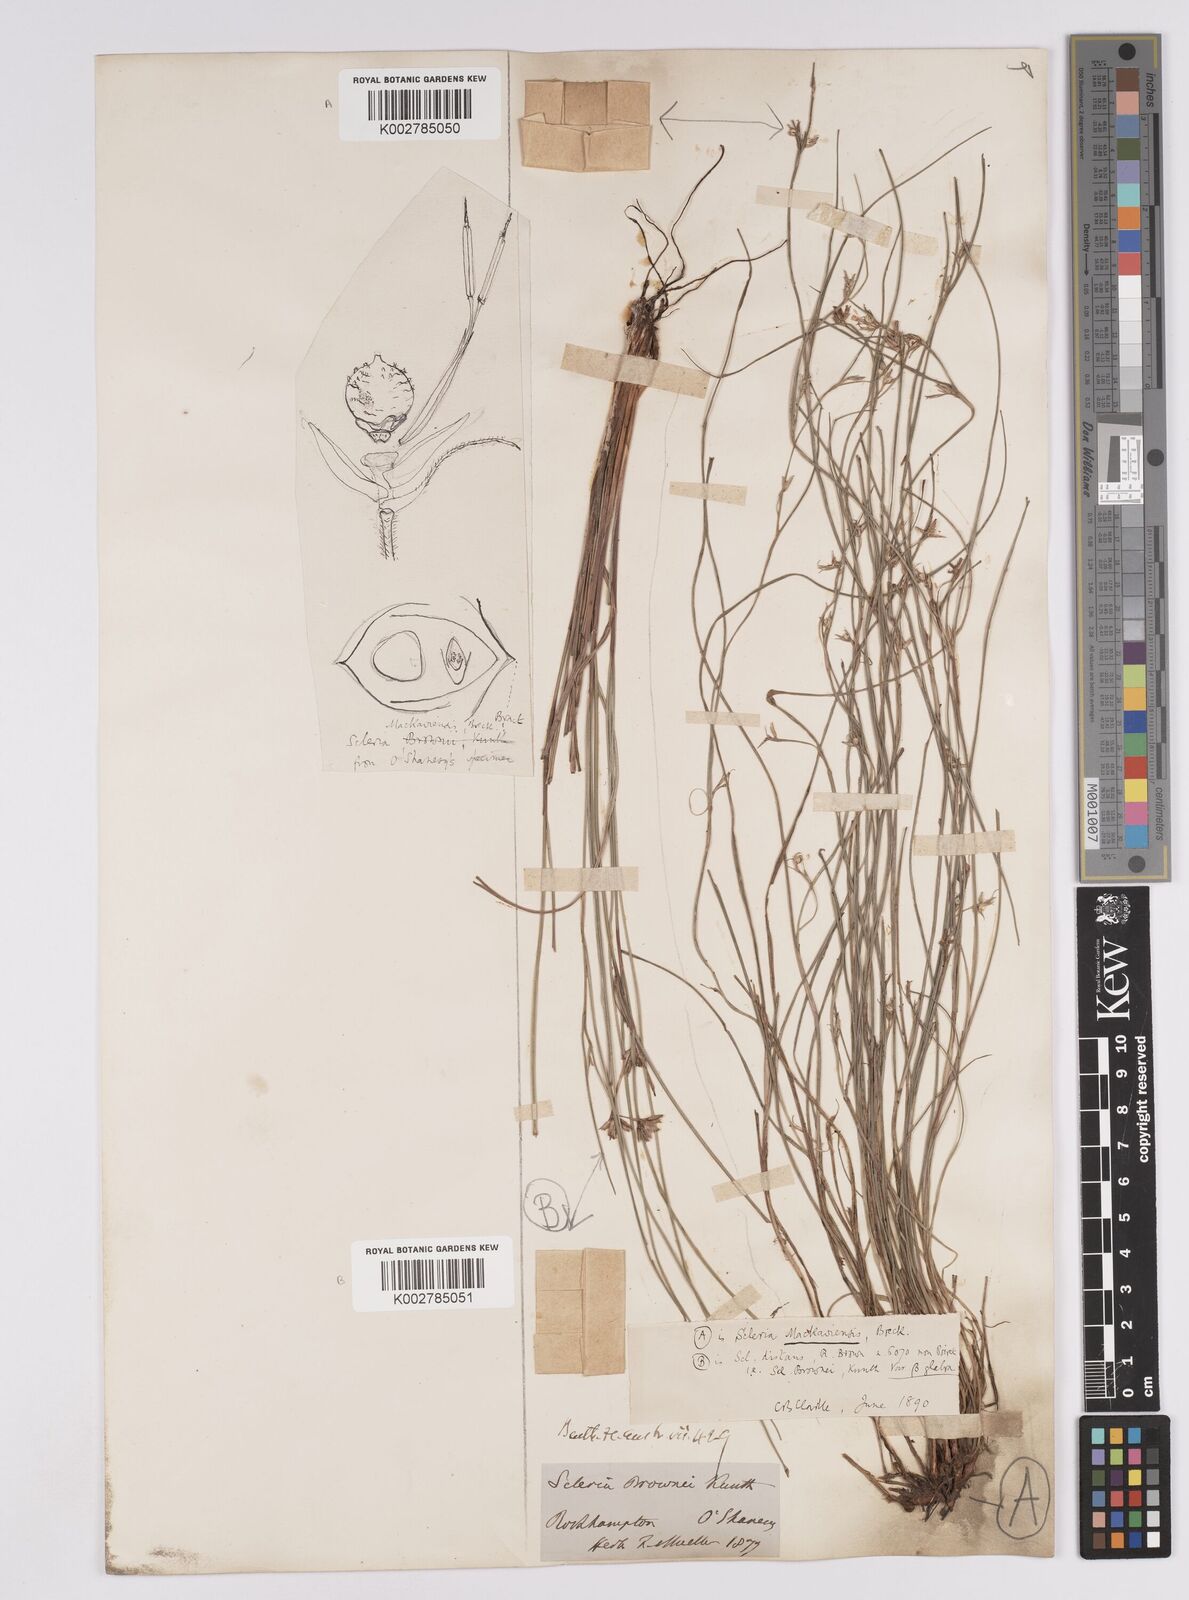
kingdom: Plantae
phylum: Tracheophyta
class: Liliopsida
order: Poales
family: Cyperaceae
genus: Scleria
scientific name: Scleria mackaviensis
